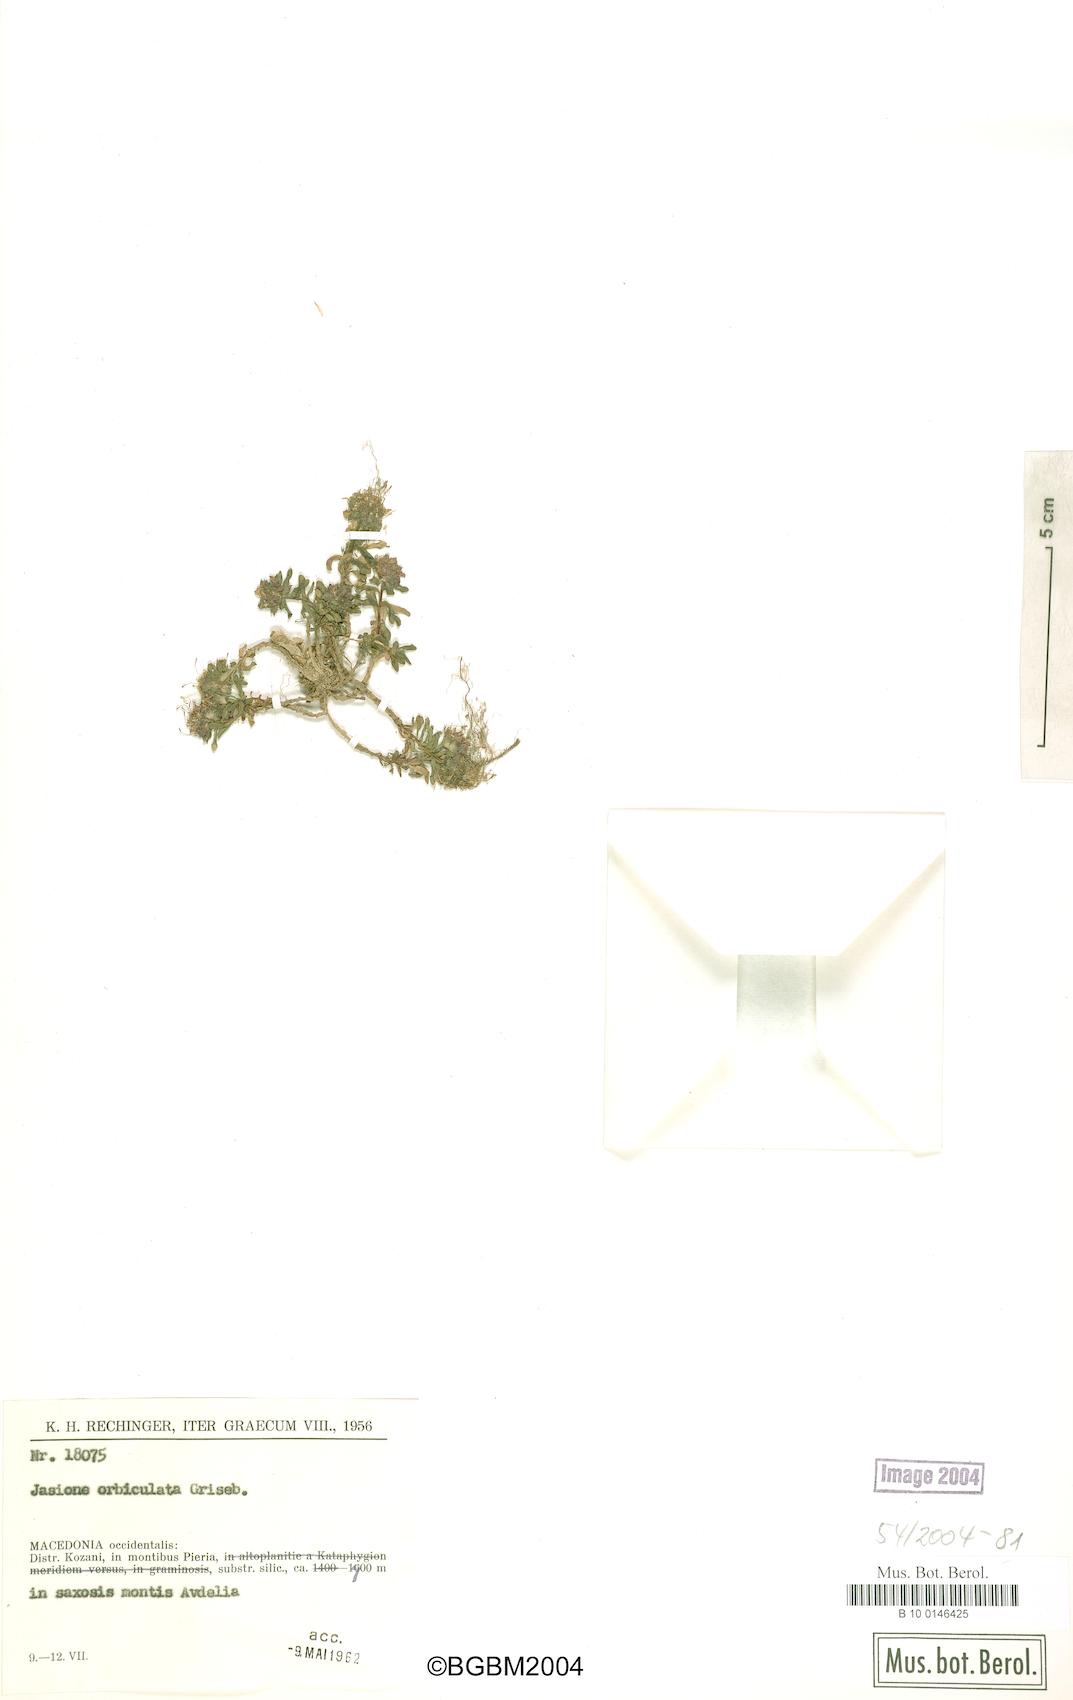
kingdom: Plantae
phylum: Tracheophyta
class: Magnoliopsida
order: Asterales
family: Campanulaceae
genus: Jasione
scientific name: Jasione orbiculata
